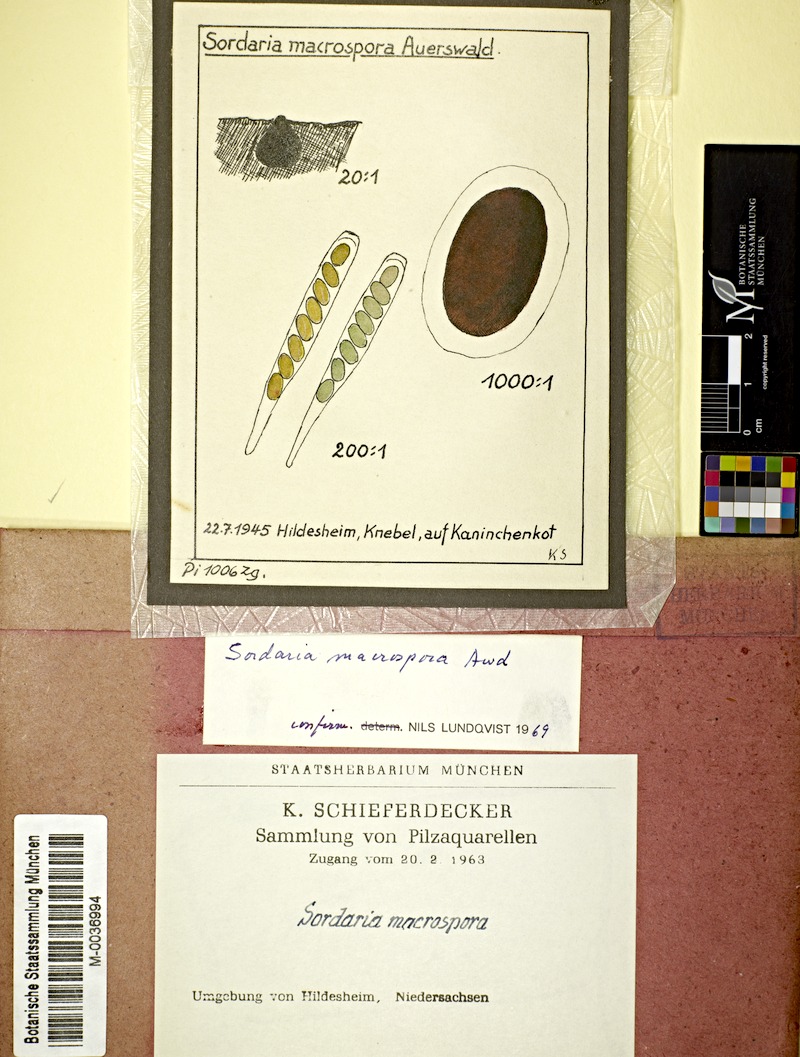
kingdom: Fungi
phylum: Ascomycota
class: Sordariomycetes
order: Sordariales
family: Sordariaceae
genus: Sordaria
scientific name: Sordaria macrospora
